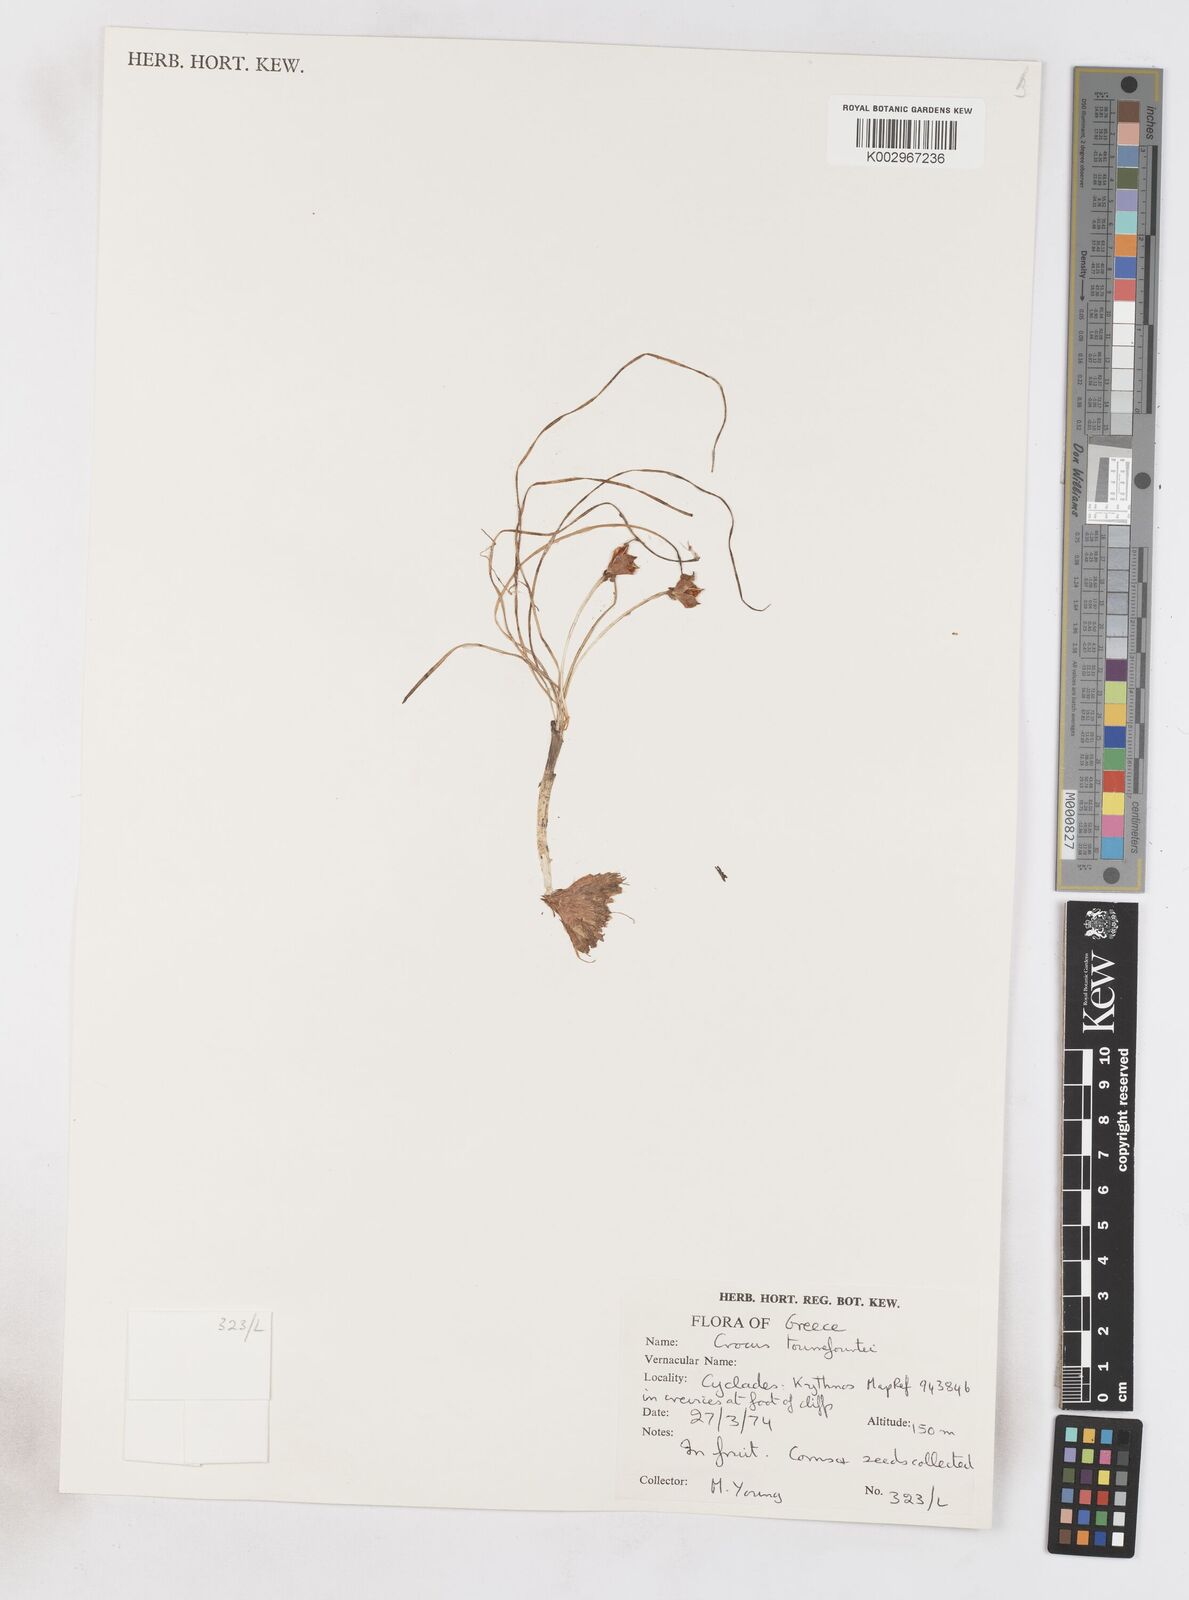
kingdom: Plantae
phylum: Tracheophyta
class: Liliopsida
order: Asparagales
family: Iridaceae
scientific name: Iridaceae
